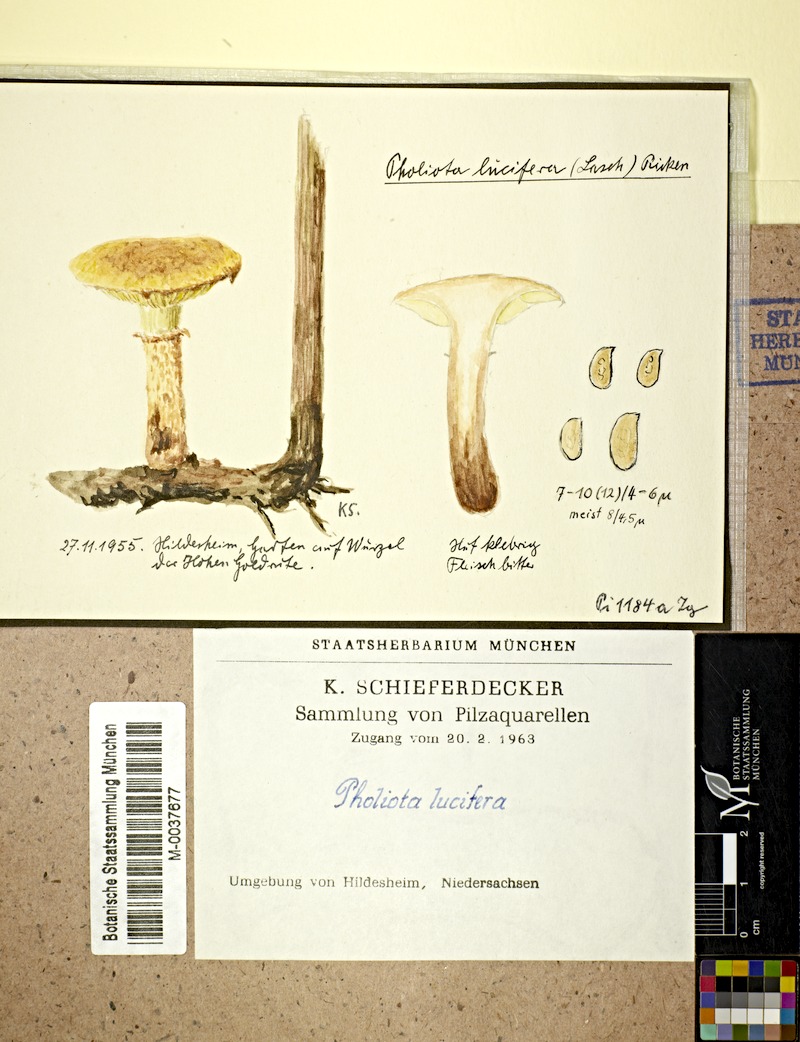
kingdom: Plantae
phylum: Tracheophyta
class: Magnoliopsida
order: Asterales
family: Asteraceae
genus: Solidago
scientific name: Solidago gigantea
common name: Giant goldenrod
